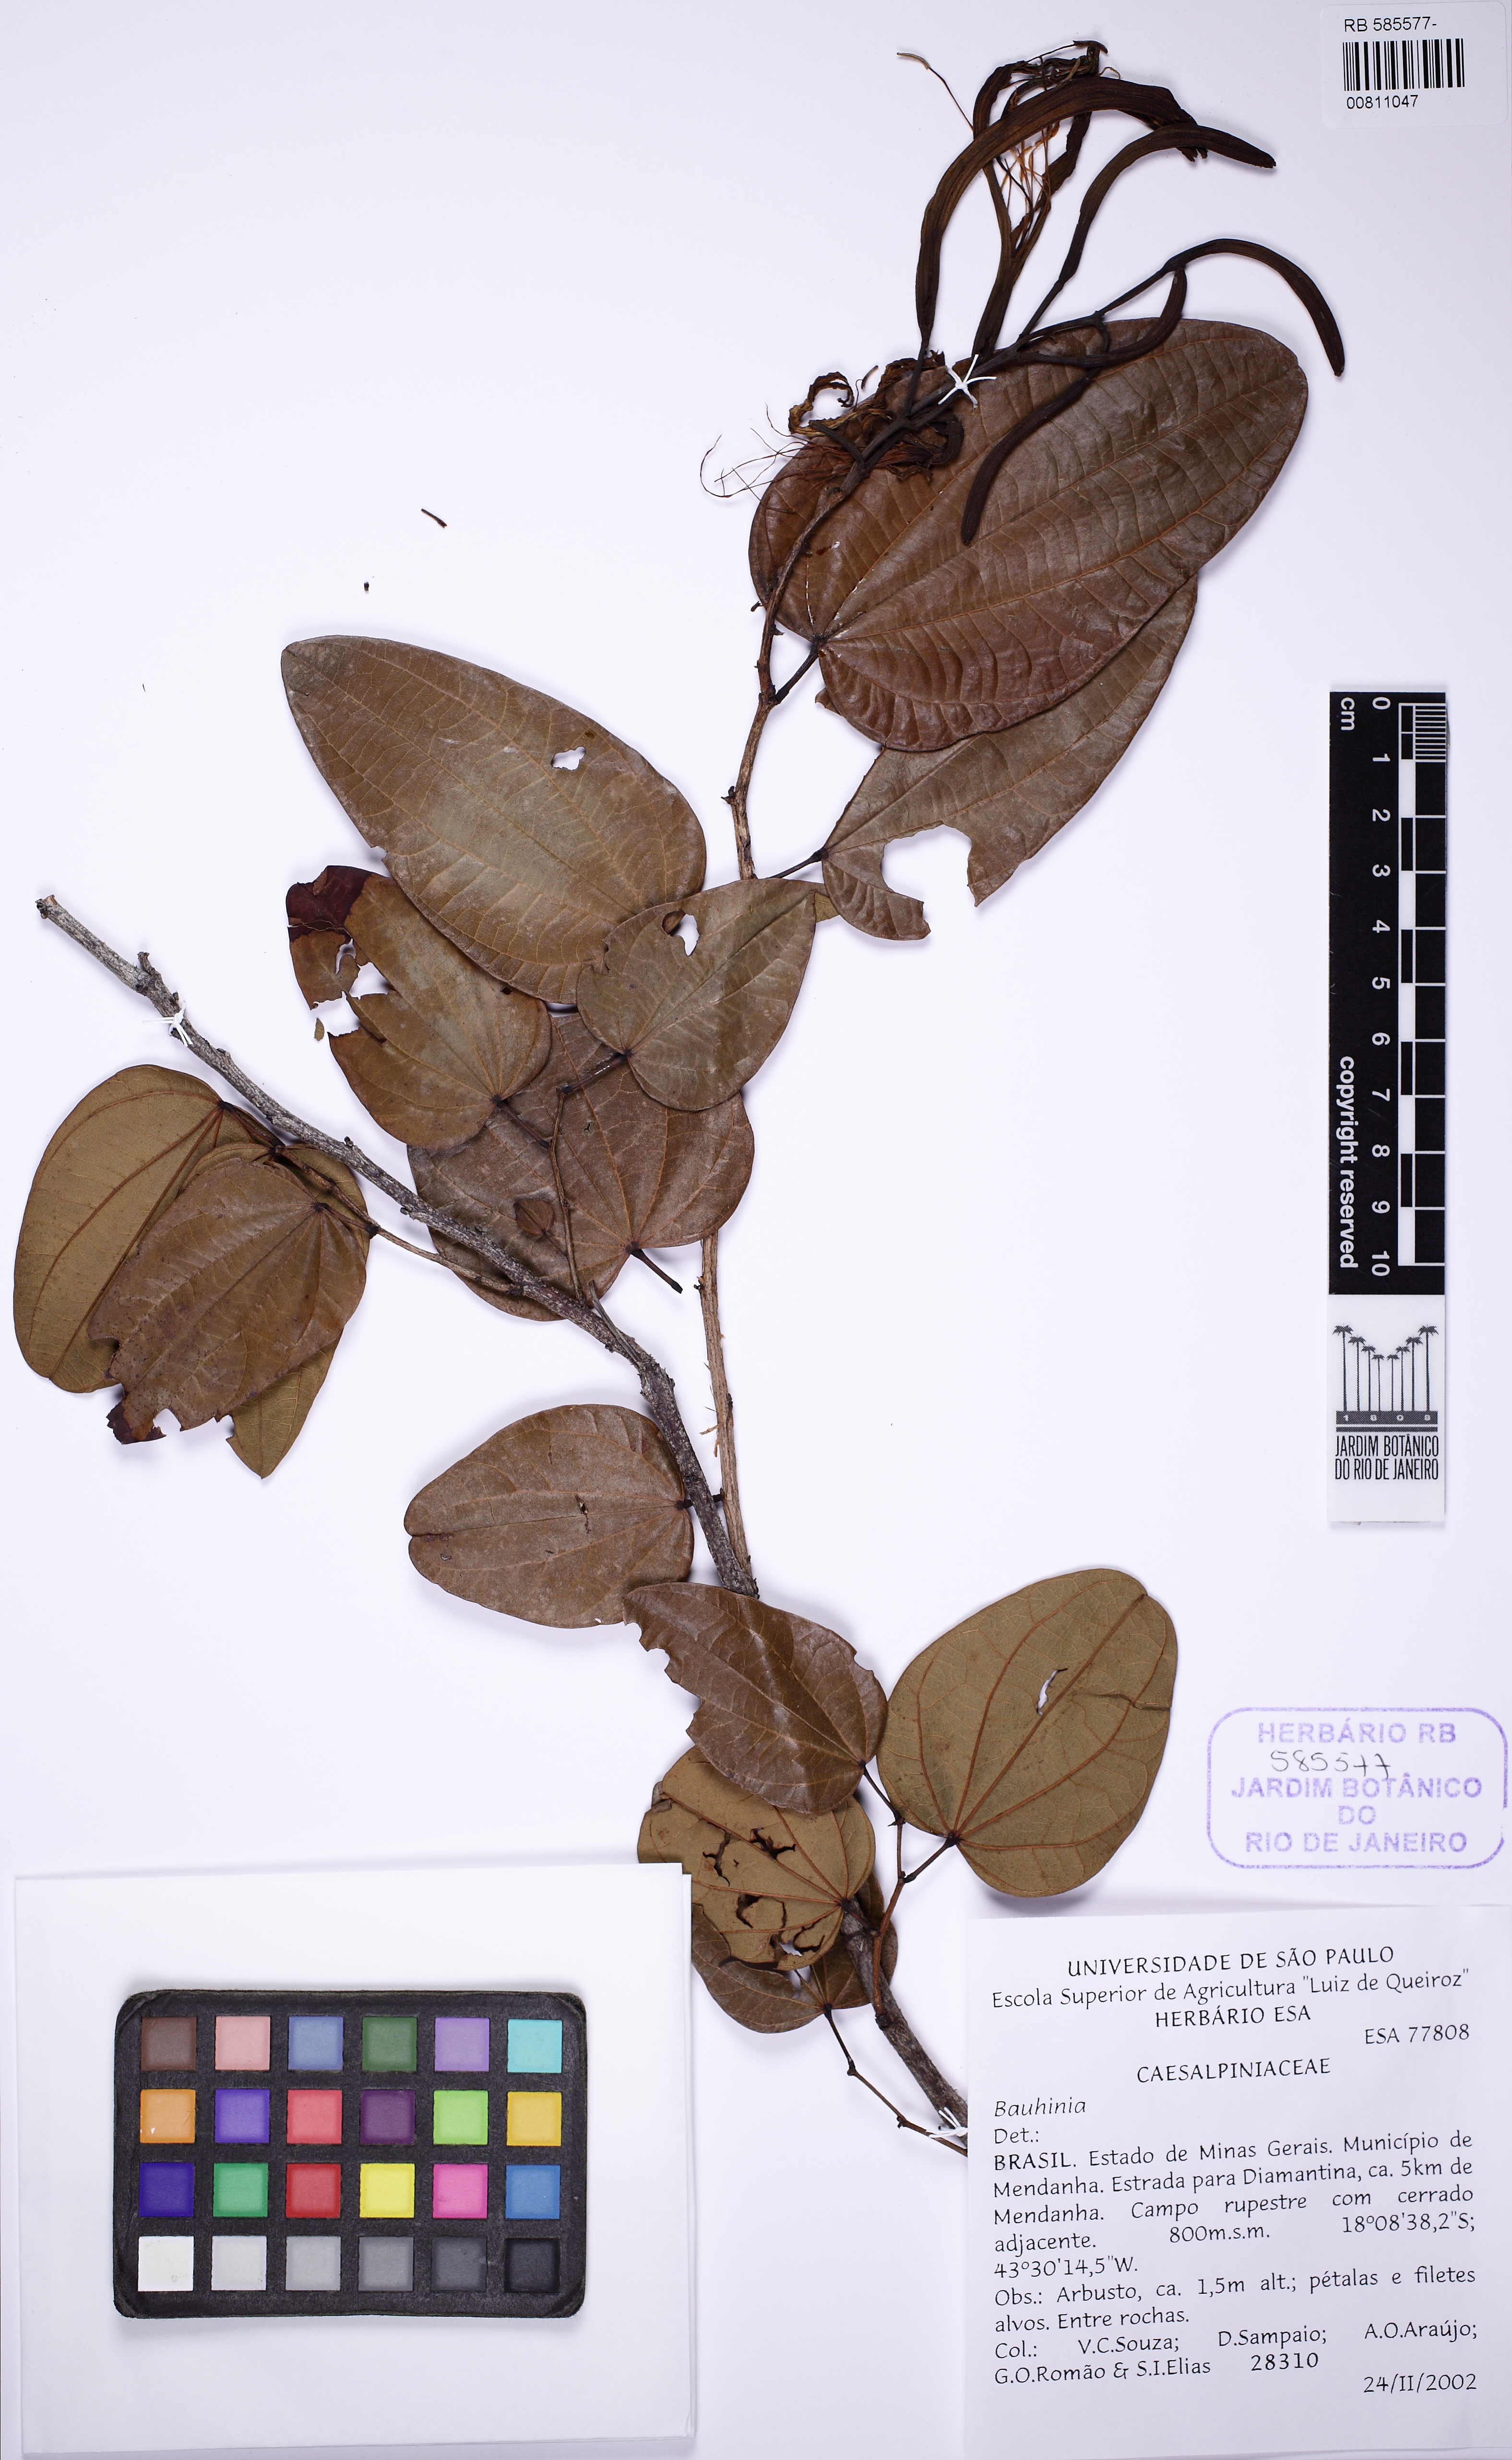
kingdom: Plantae
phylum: Tracheophyta
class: Magnoliopsida
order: Fabales
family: Fabaceae
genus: Bauhinia
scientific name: Bauhinia
